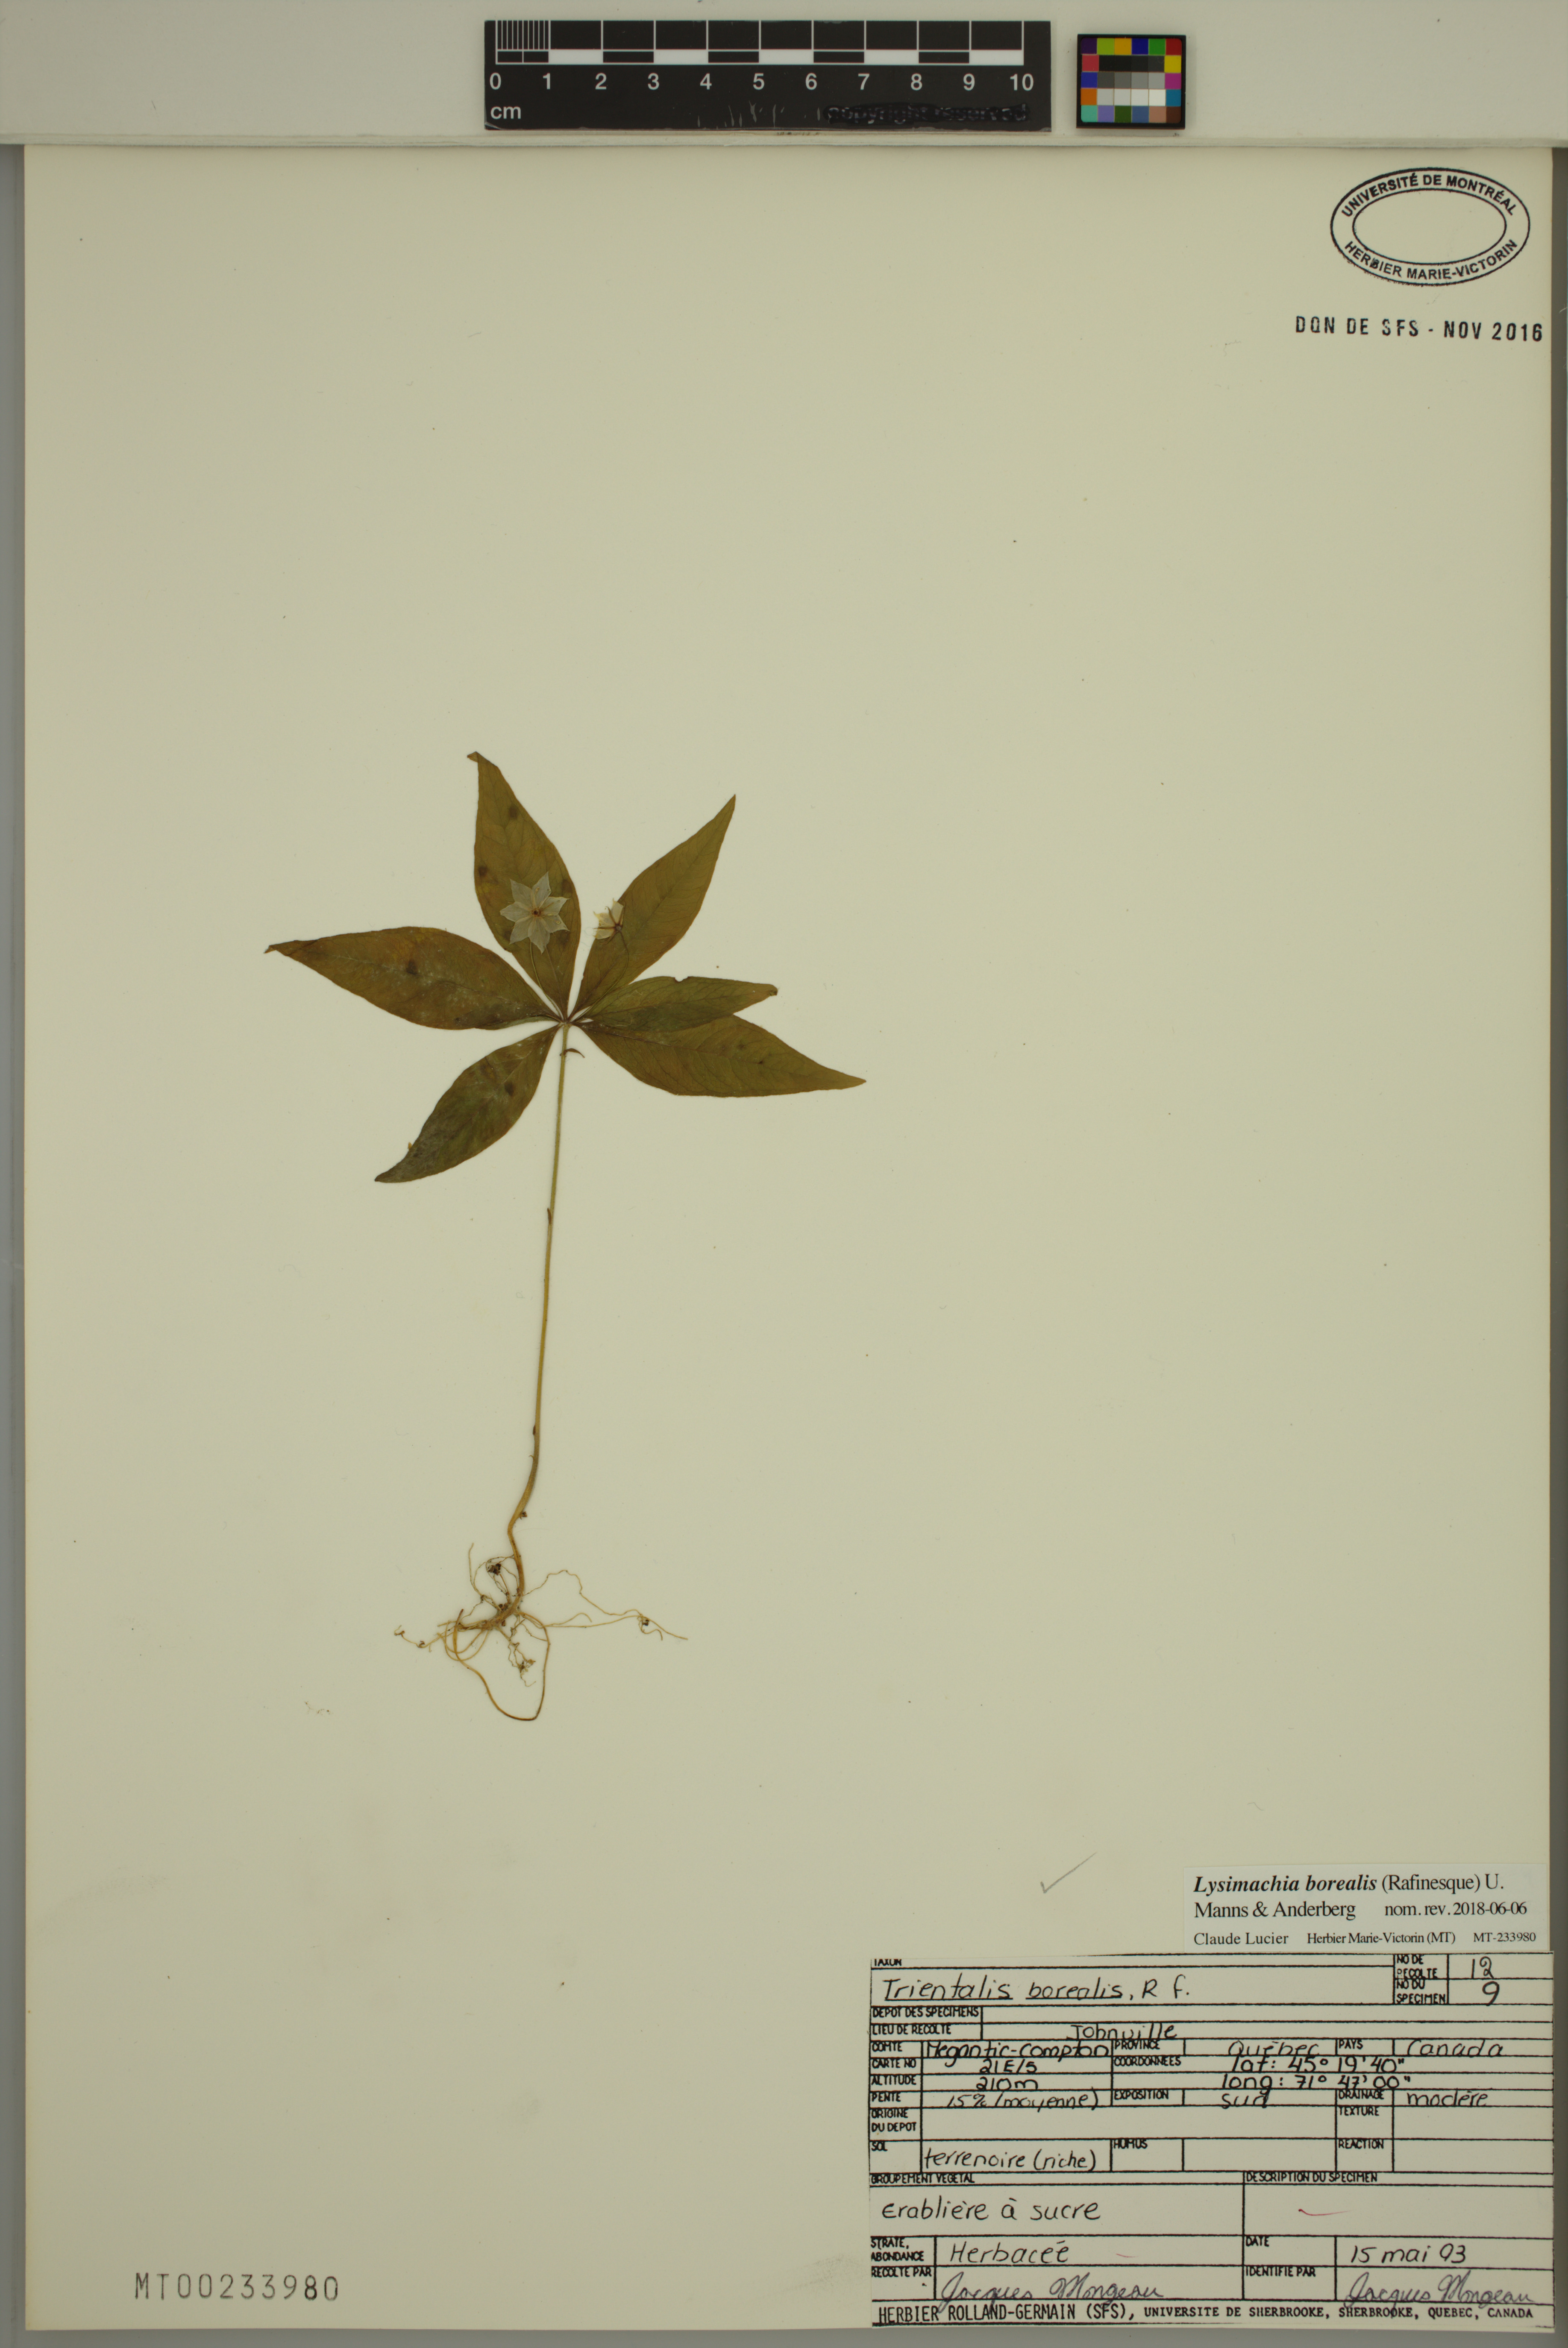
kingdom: Plantae
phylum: Tracheophyta
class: Magnoliopsida
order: Ericales
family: Primulaceae
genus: Lysimachia
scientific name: Lysimachia borealis
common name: American starflower
